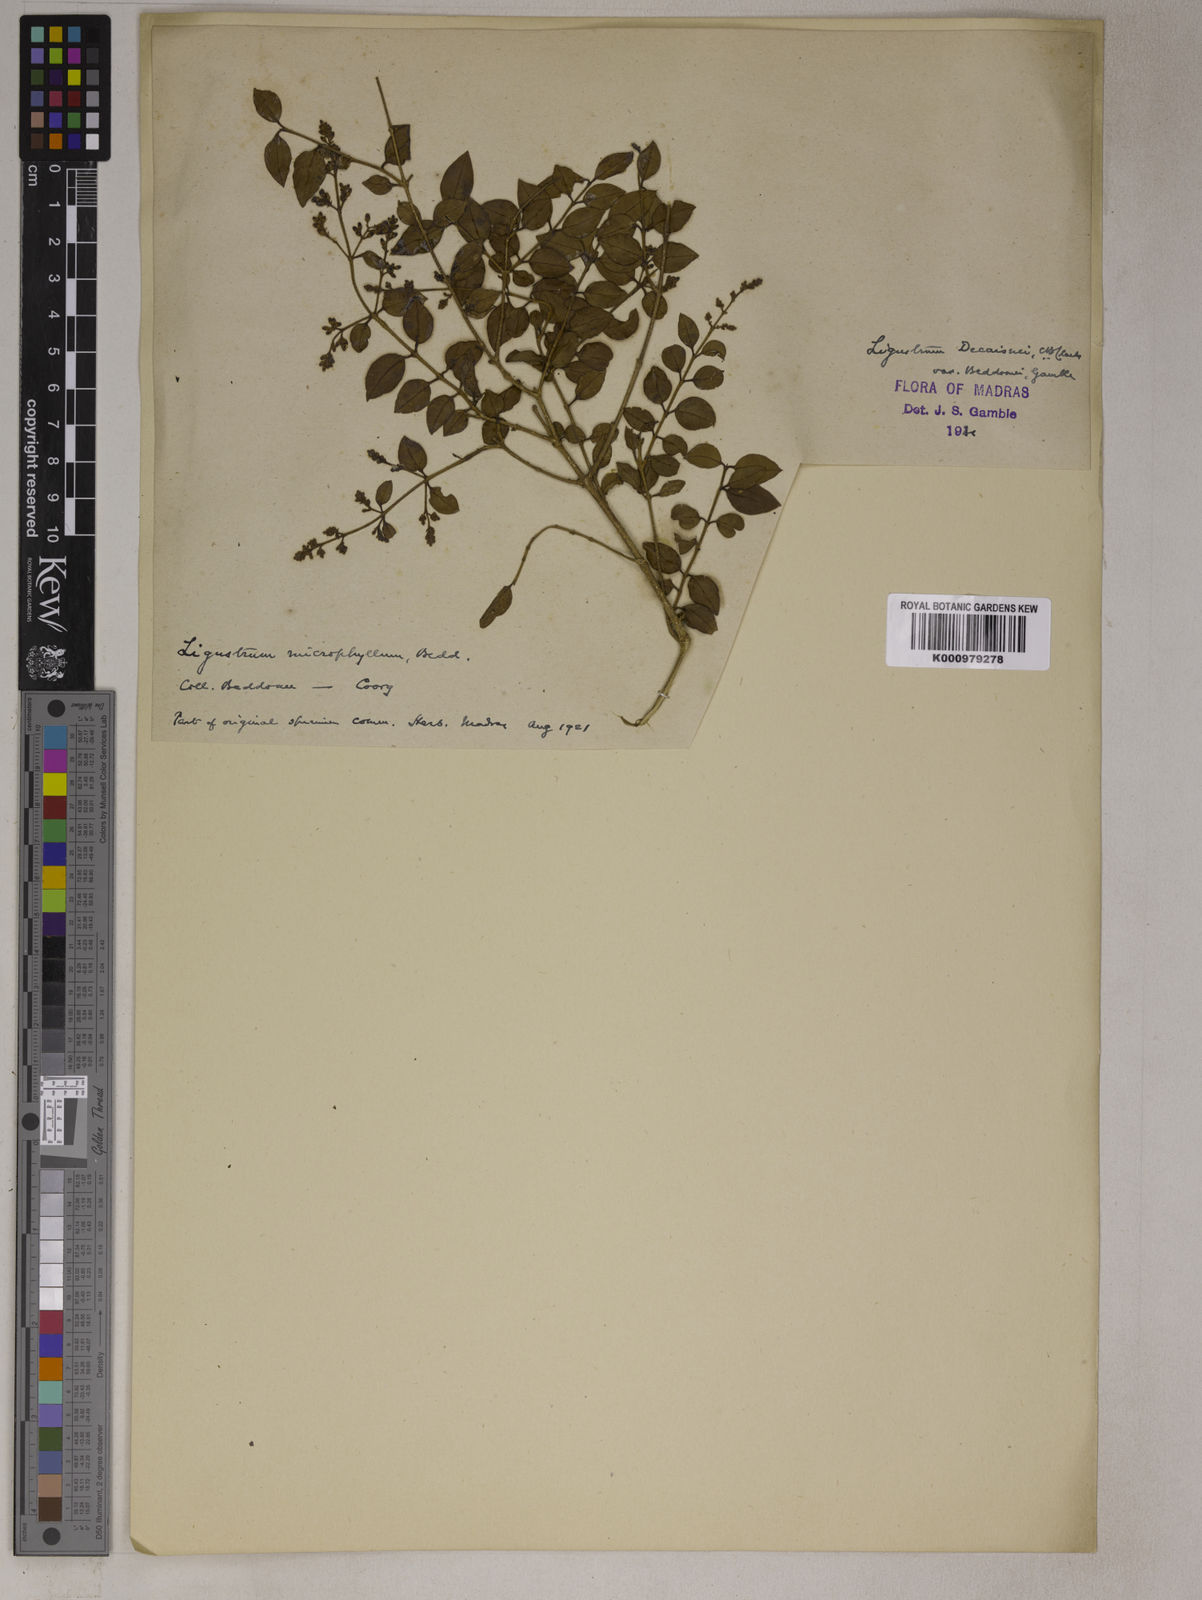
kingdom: Plantae
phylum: Tracheophyta
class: Magnoliopsida
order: Lamiales
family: Oleaceae
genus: Ligustrum
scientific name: Ligustrum robustum
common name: Tree privet
